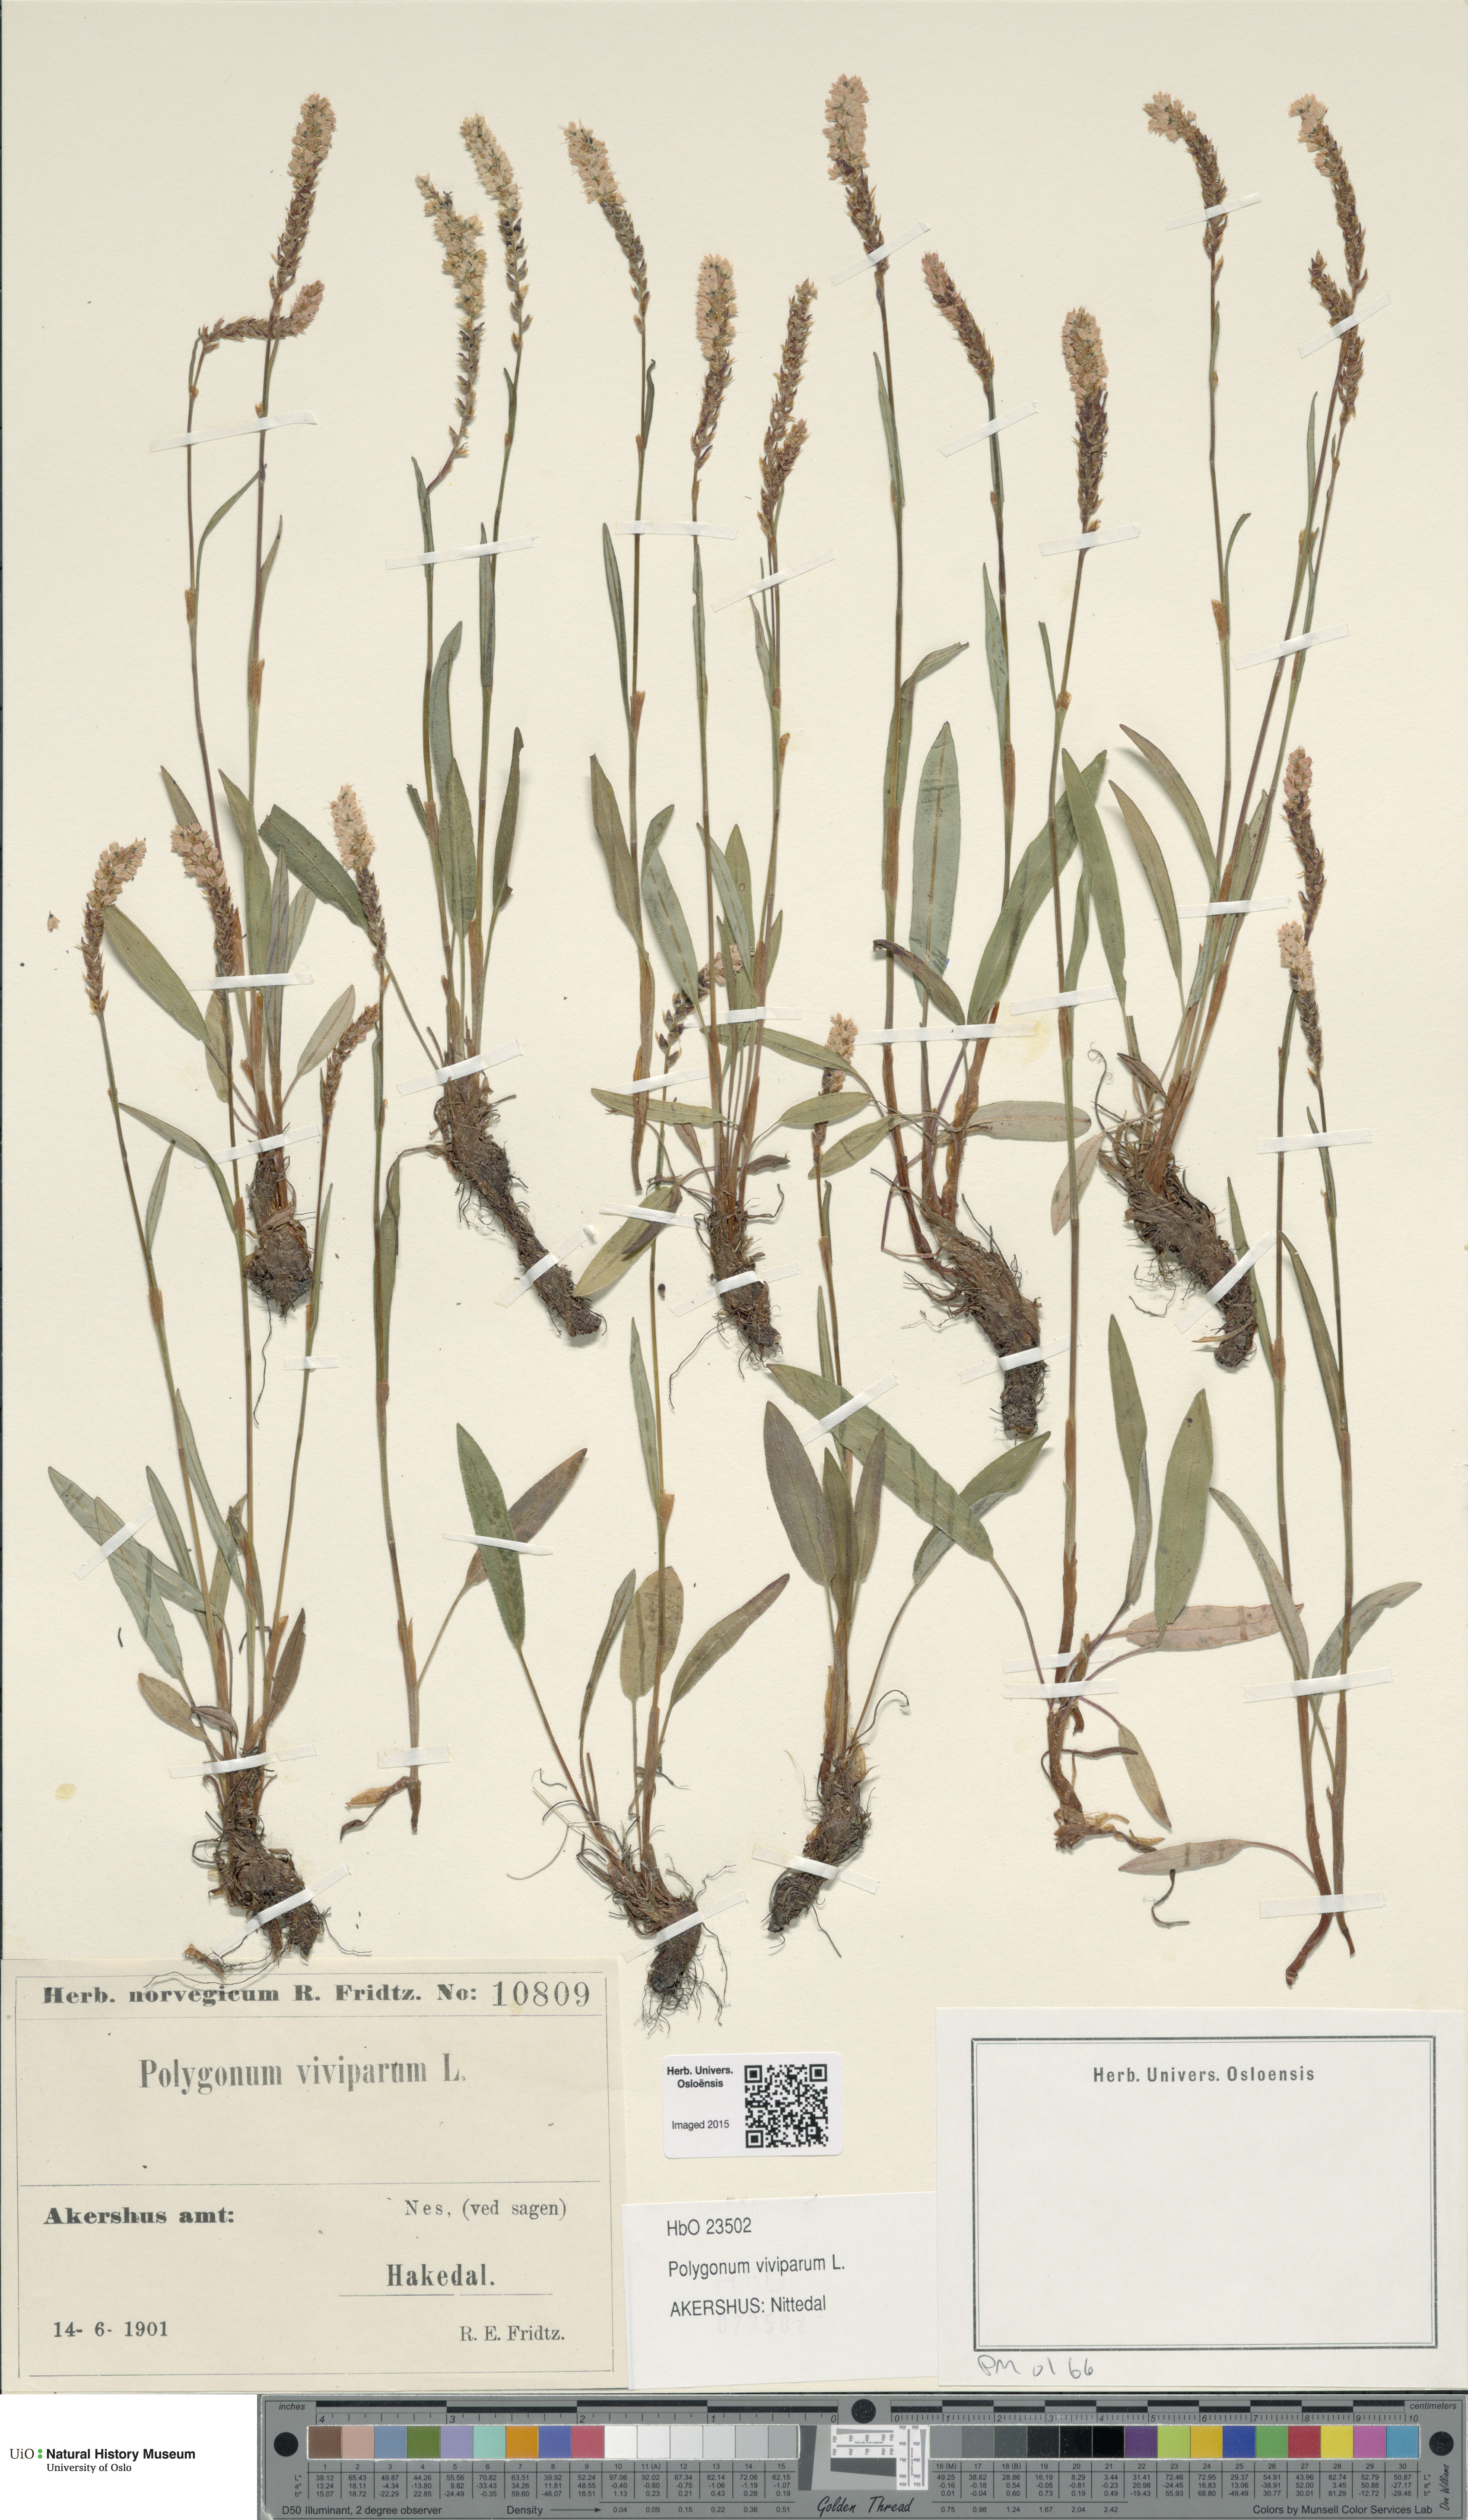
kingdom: Plantae
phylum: Tracheophyta
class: Magnoliopsida
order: Caryophyllales
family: Polygonaceae
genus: Bistorta
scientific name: Bistorta vivipara
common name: Alpine bistort
